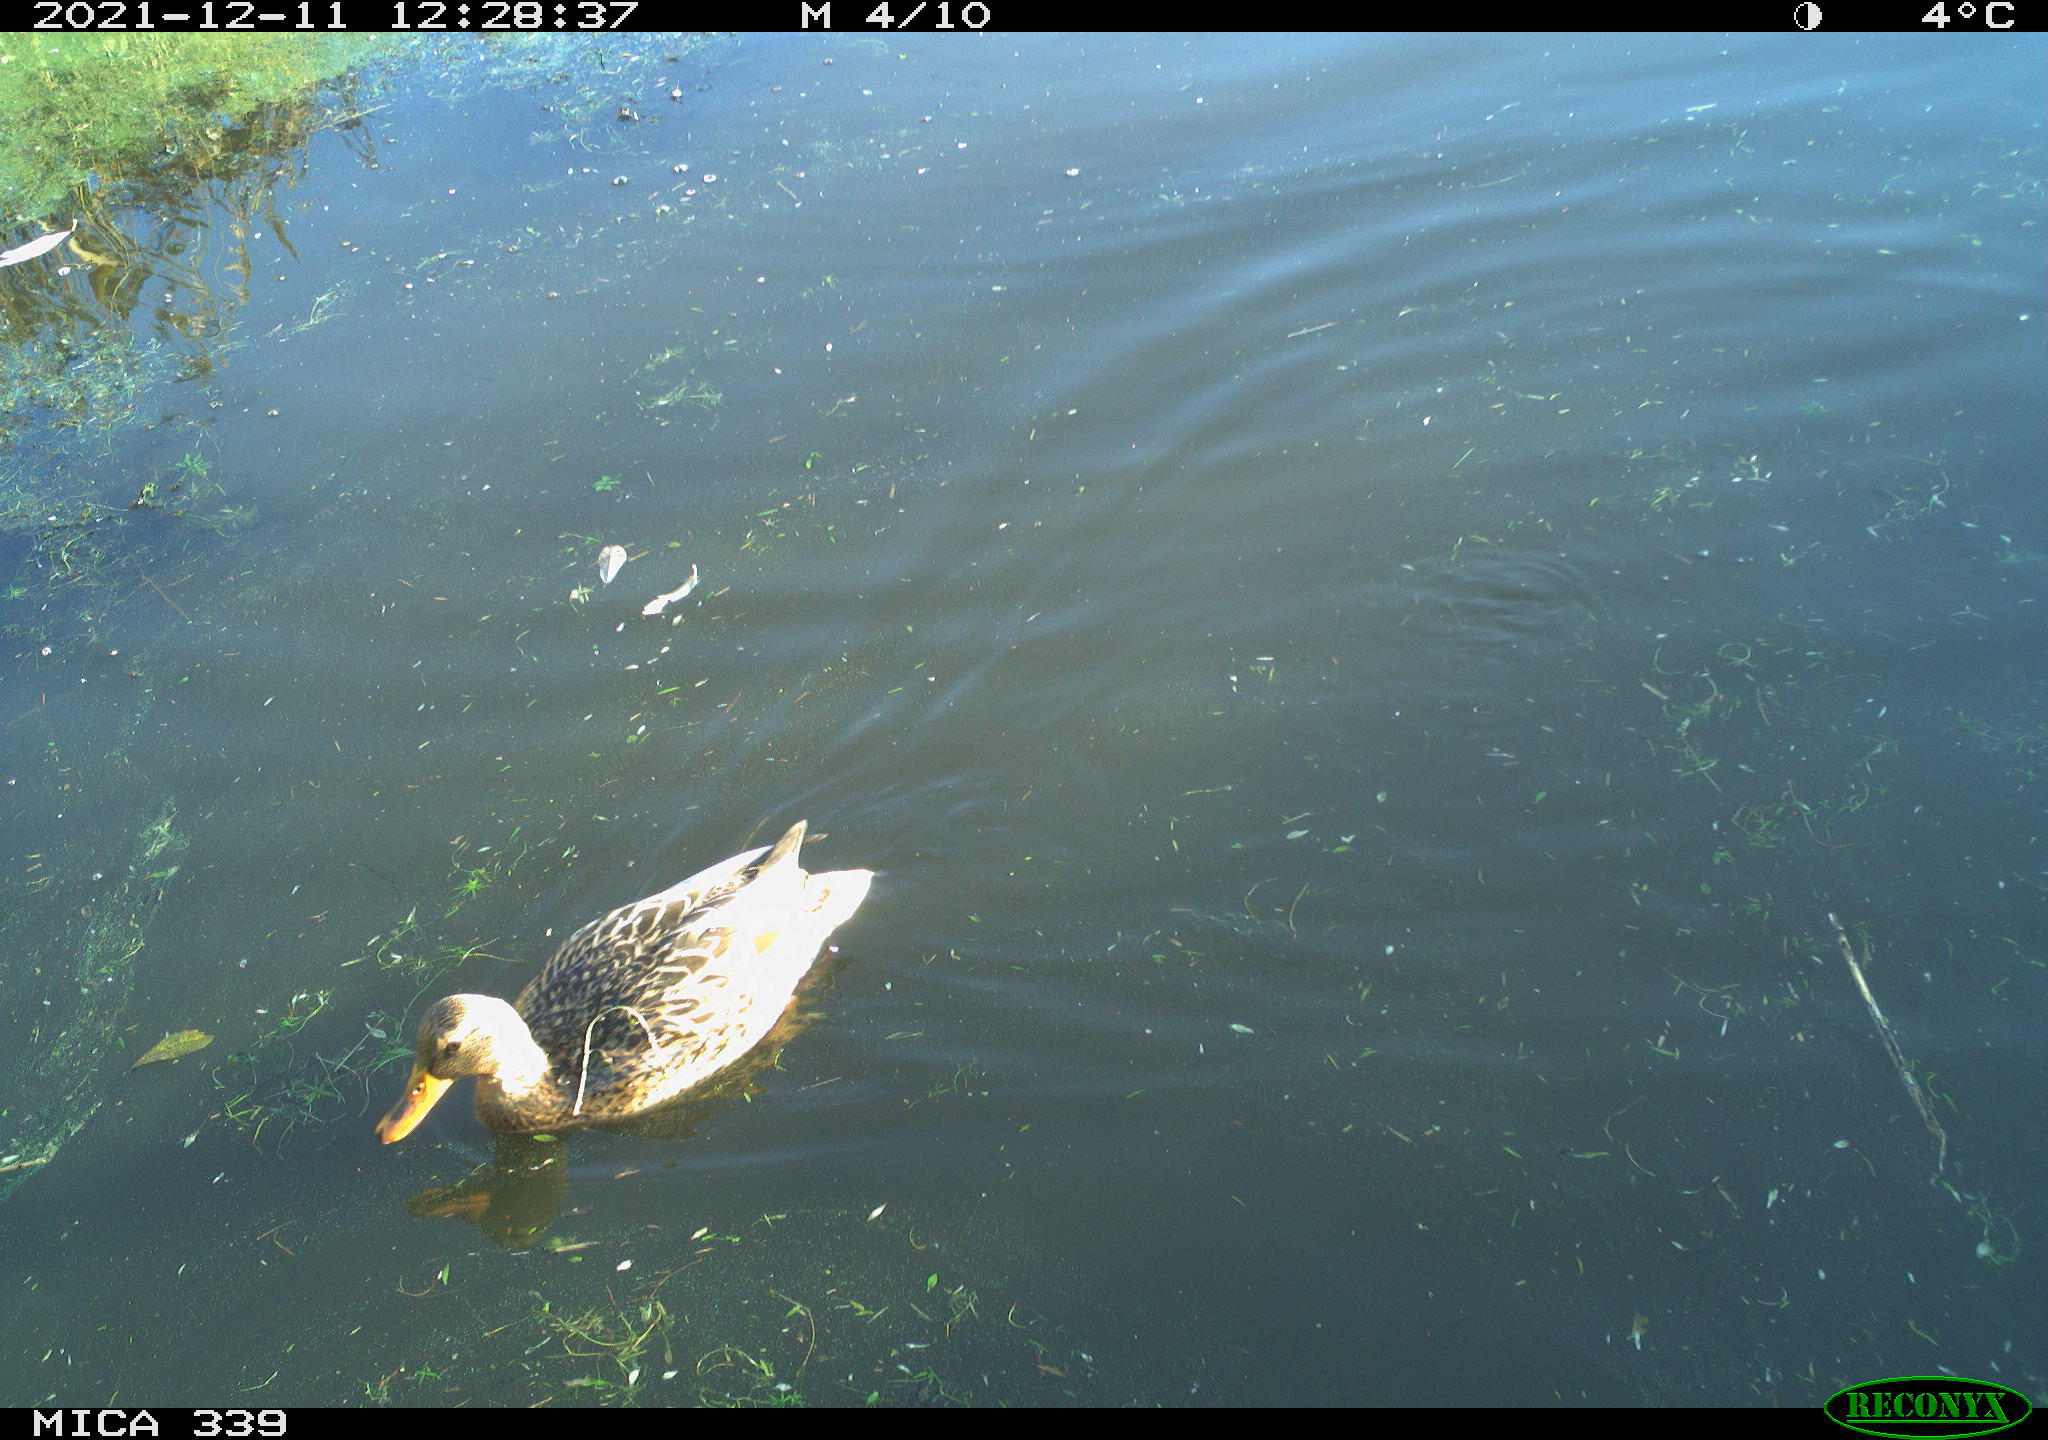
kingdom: Animalia
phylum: Chordata
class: Aves
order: Anseriformes
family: Anatidae
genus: Anas
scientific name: Anas platyrhynchos
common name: Mallard
